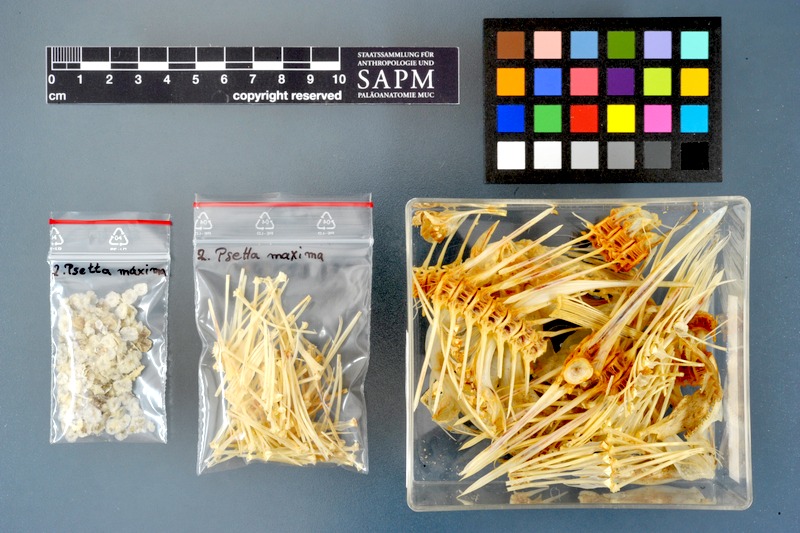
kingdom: Animalia
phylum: Chordata
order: Pleuronectiformes
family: Scophthalmidae
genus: Scophthalmus
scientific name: Scophthalmus maximus
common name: Turbot
